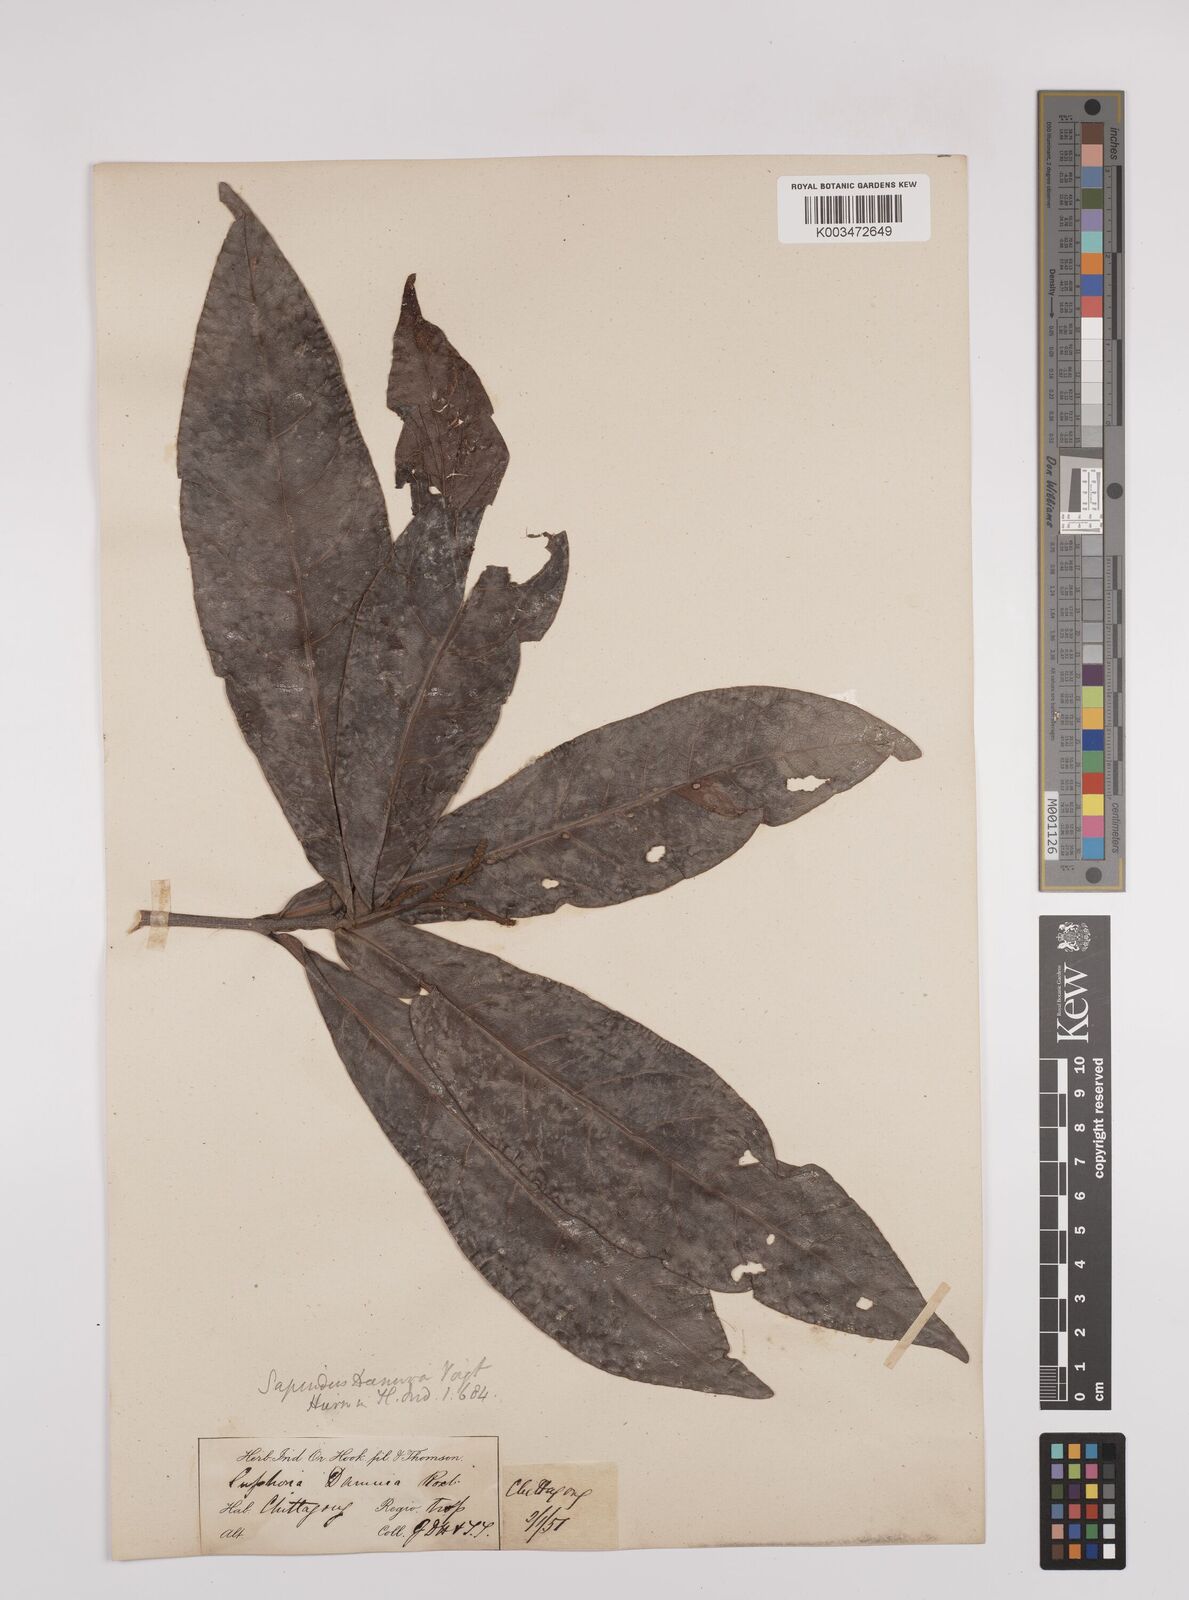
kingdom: Plantae
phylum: Tracheophyta
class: Magnoliopsida
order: Sapindales
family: Sapindaceae
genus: Lepisanthes
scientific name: Lepisanthes senegalensis
